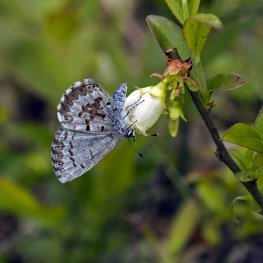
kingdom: Animalia
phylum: Arthropoda
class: Insecta
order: Lepidoptera
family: Lycaenidae
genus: Celastrina
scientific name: Celastrina lucia
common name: Northern Spring Azure
